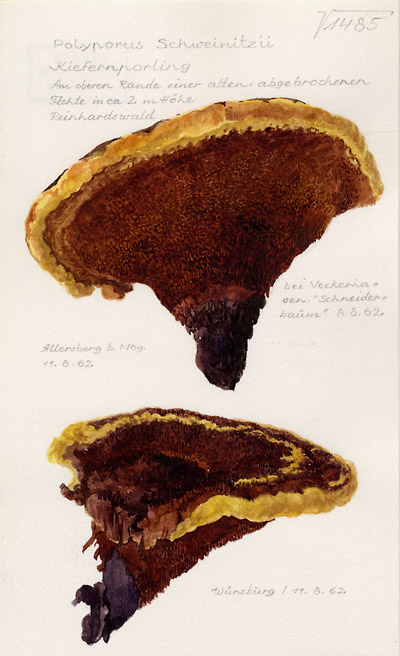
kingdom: Fungi
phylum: Basidiomycota
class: Agaricomycetes
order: Polyporales
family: Laetiporaceae
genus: Phaeolus
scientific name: Phaeolus schweinitzii
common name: Dyer's mazegill
